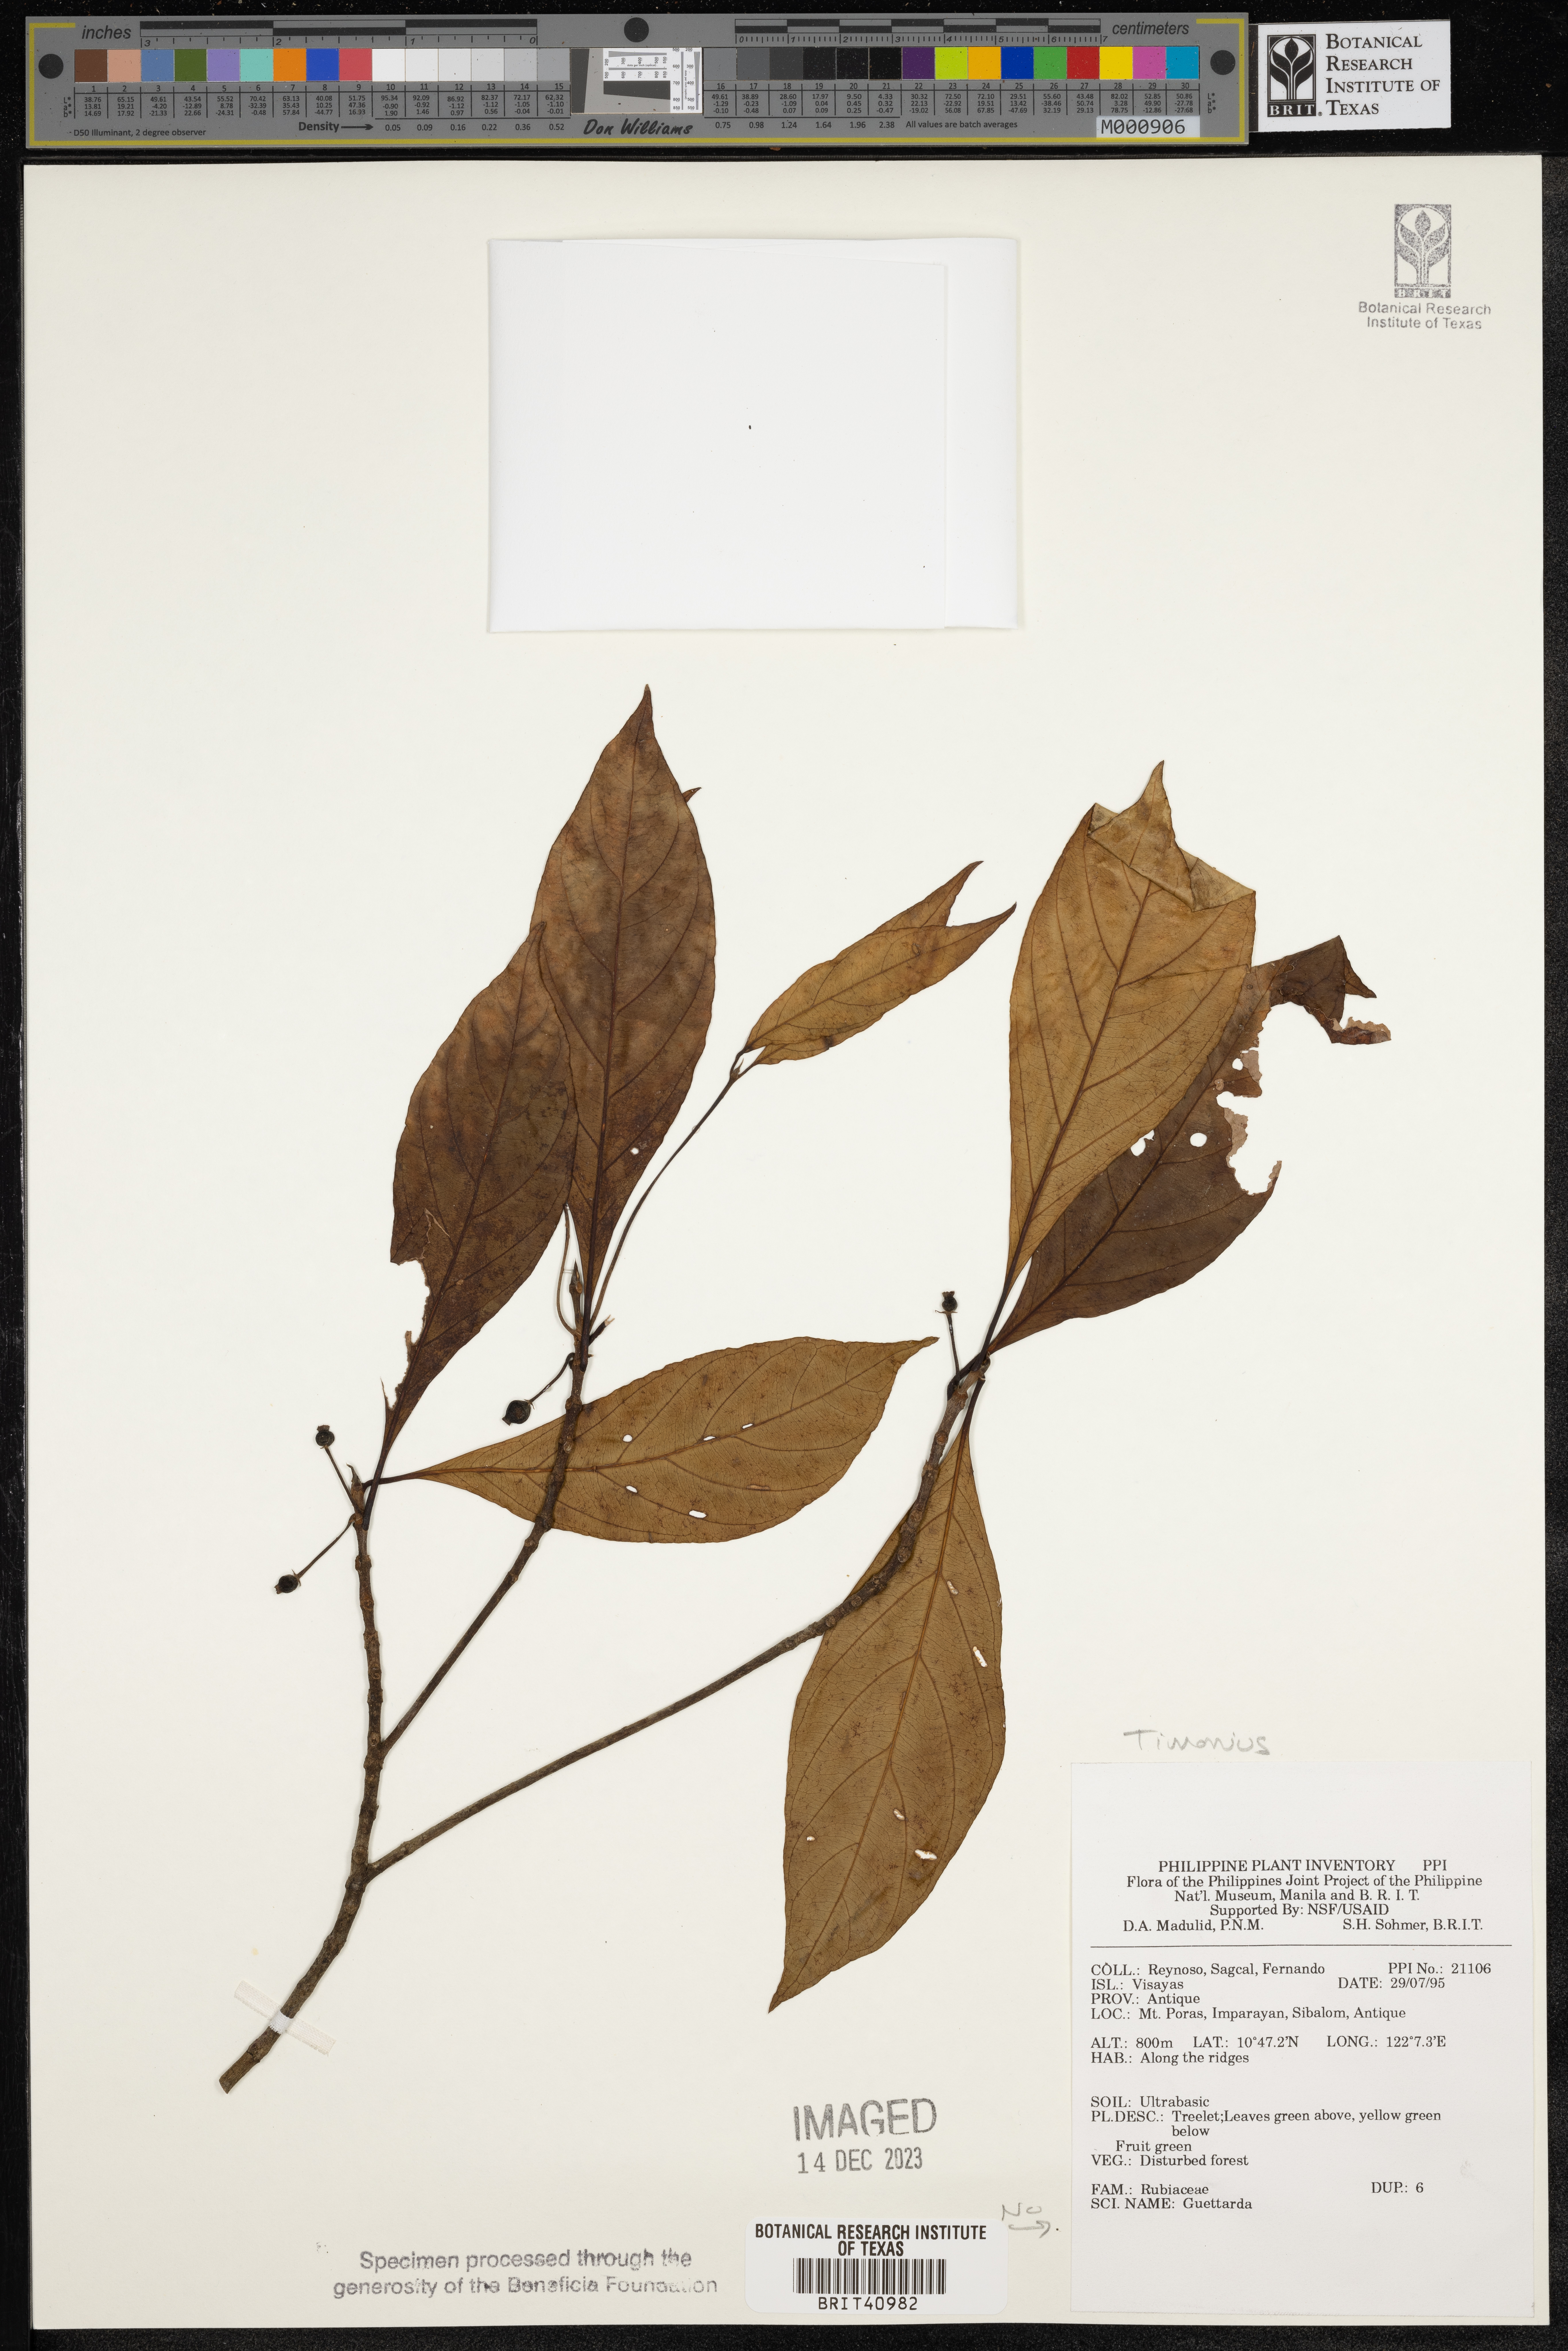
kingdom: Plantae
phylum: Tracheophyta
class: Magnoliopsida
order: Gentianales
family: Rubiaceae
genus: Timonius
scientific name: Timonius
